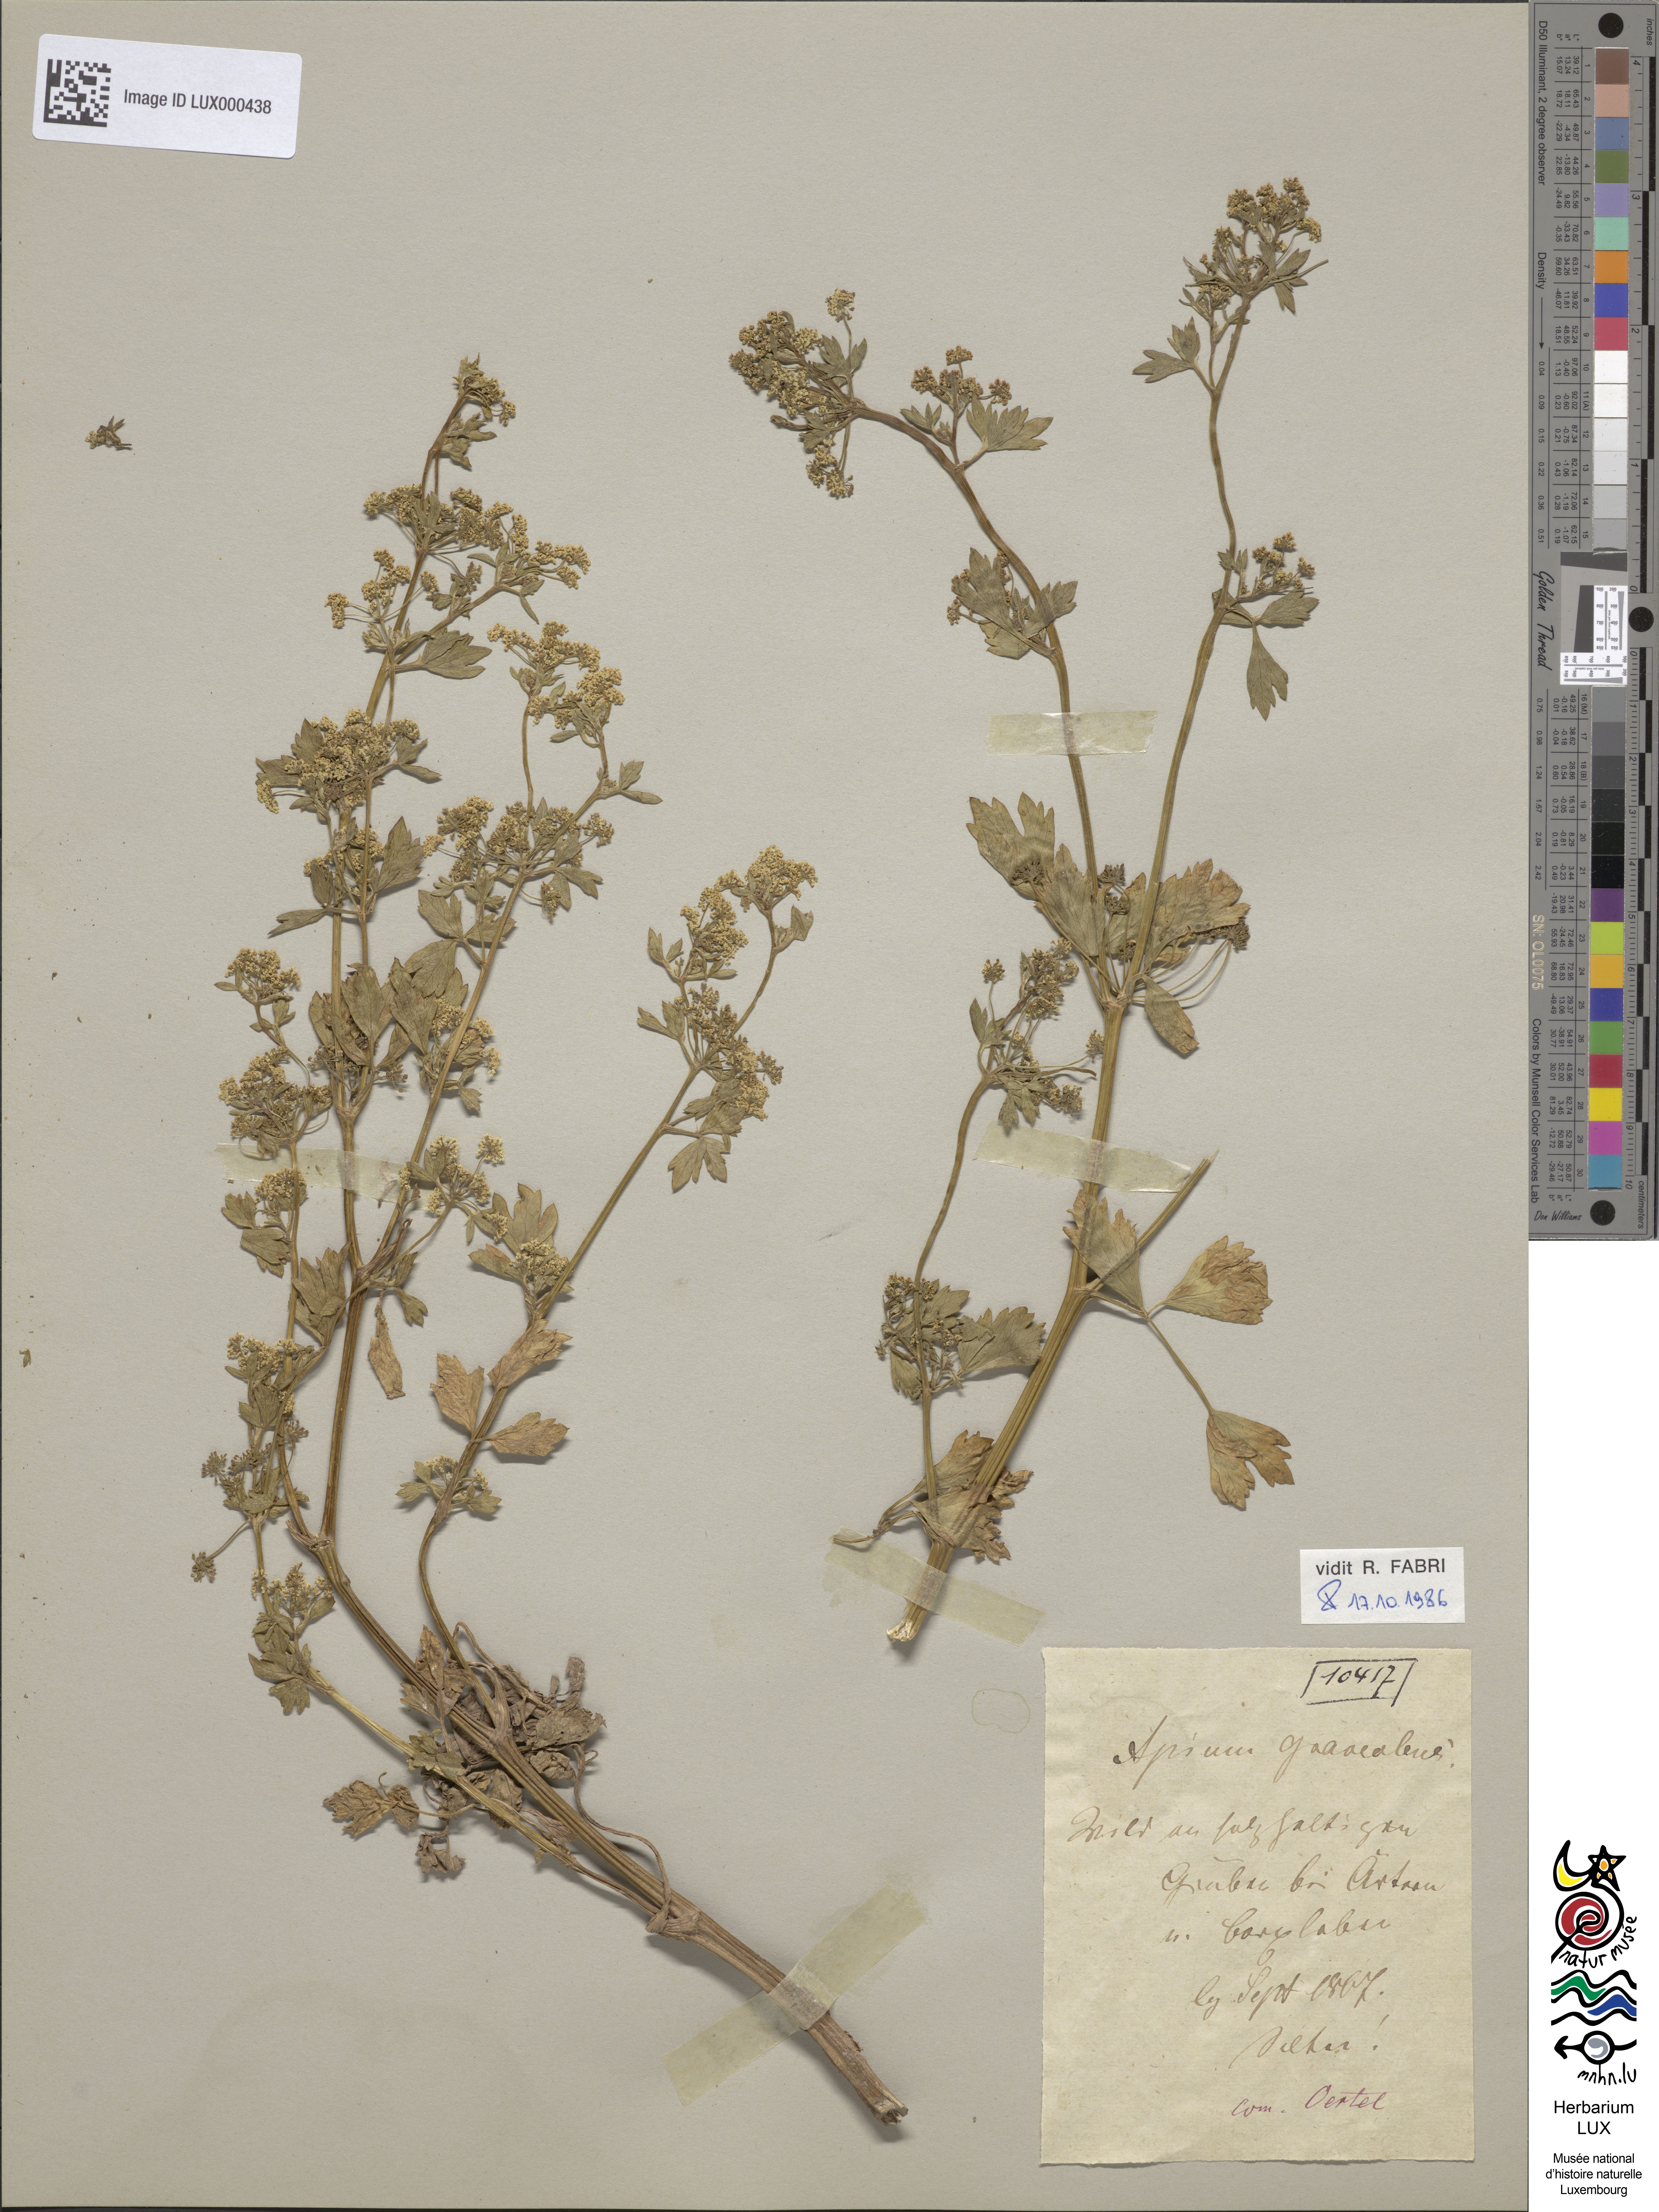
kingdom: Plantae
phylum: Tracheophyta
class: Magnoliopsida
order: Apiales
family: Apiaceae
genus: Apium
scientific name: Apium graveolens
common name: Wild celery
